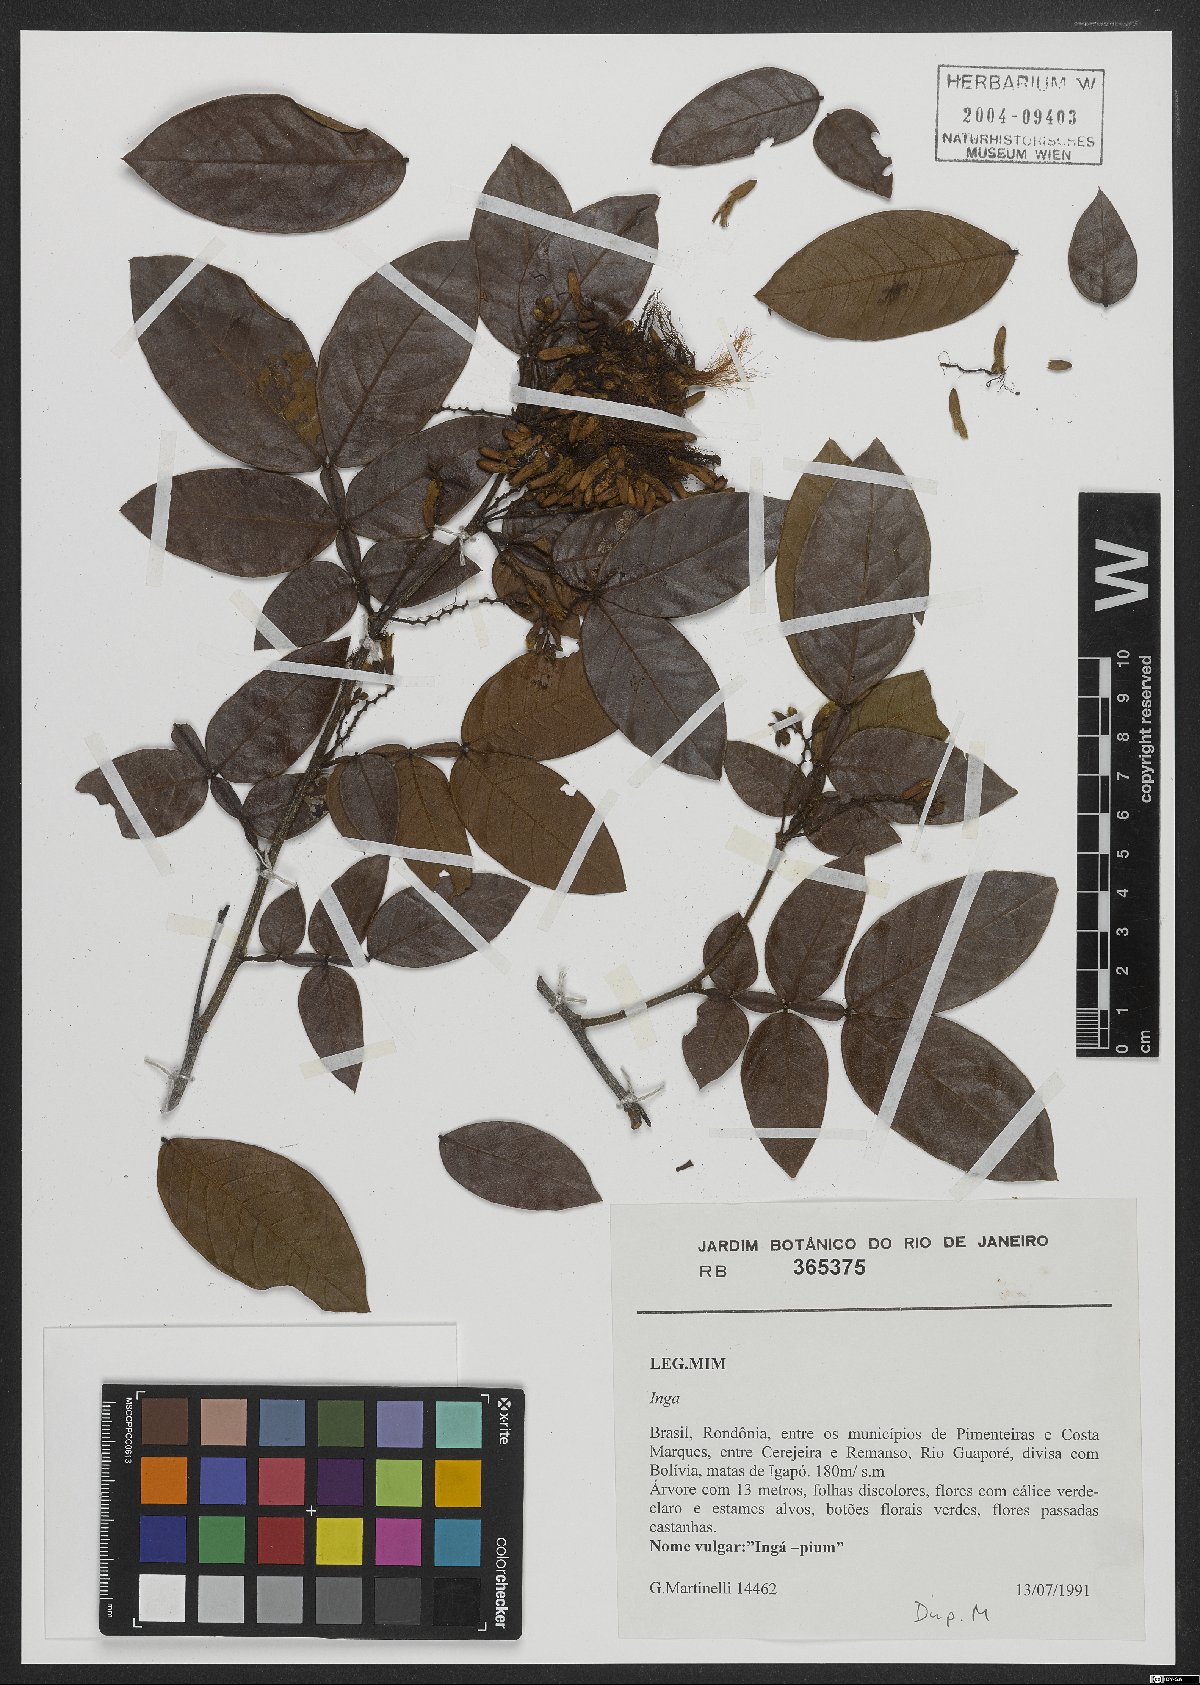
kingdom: Plantae
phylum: Tracheophyta
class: Magnoliopsida
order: Fabales
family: Fabaceae
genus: Inga
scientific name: Inga
